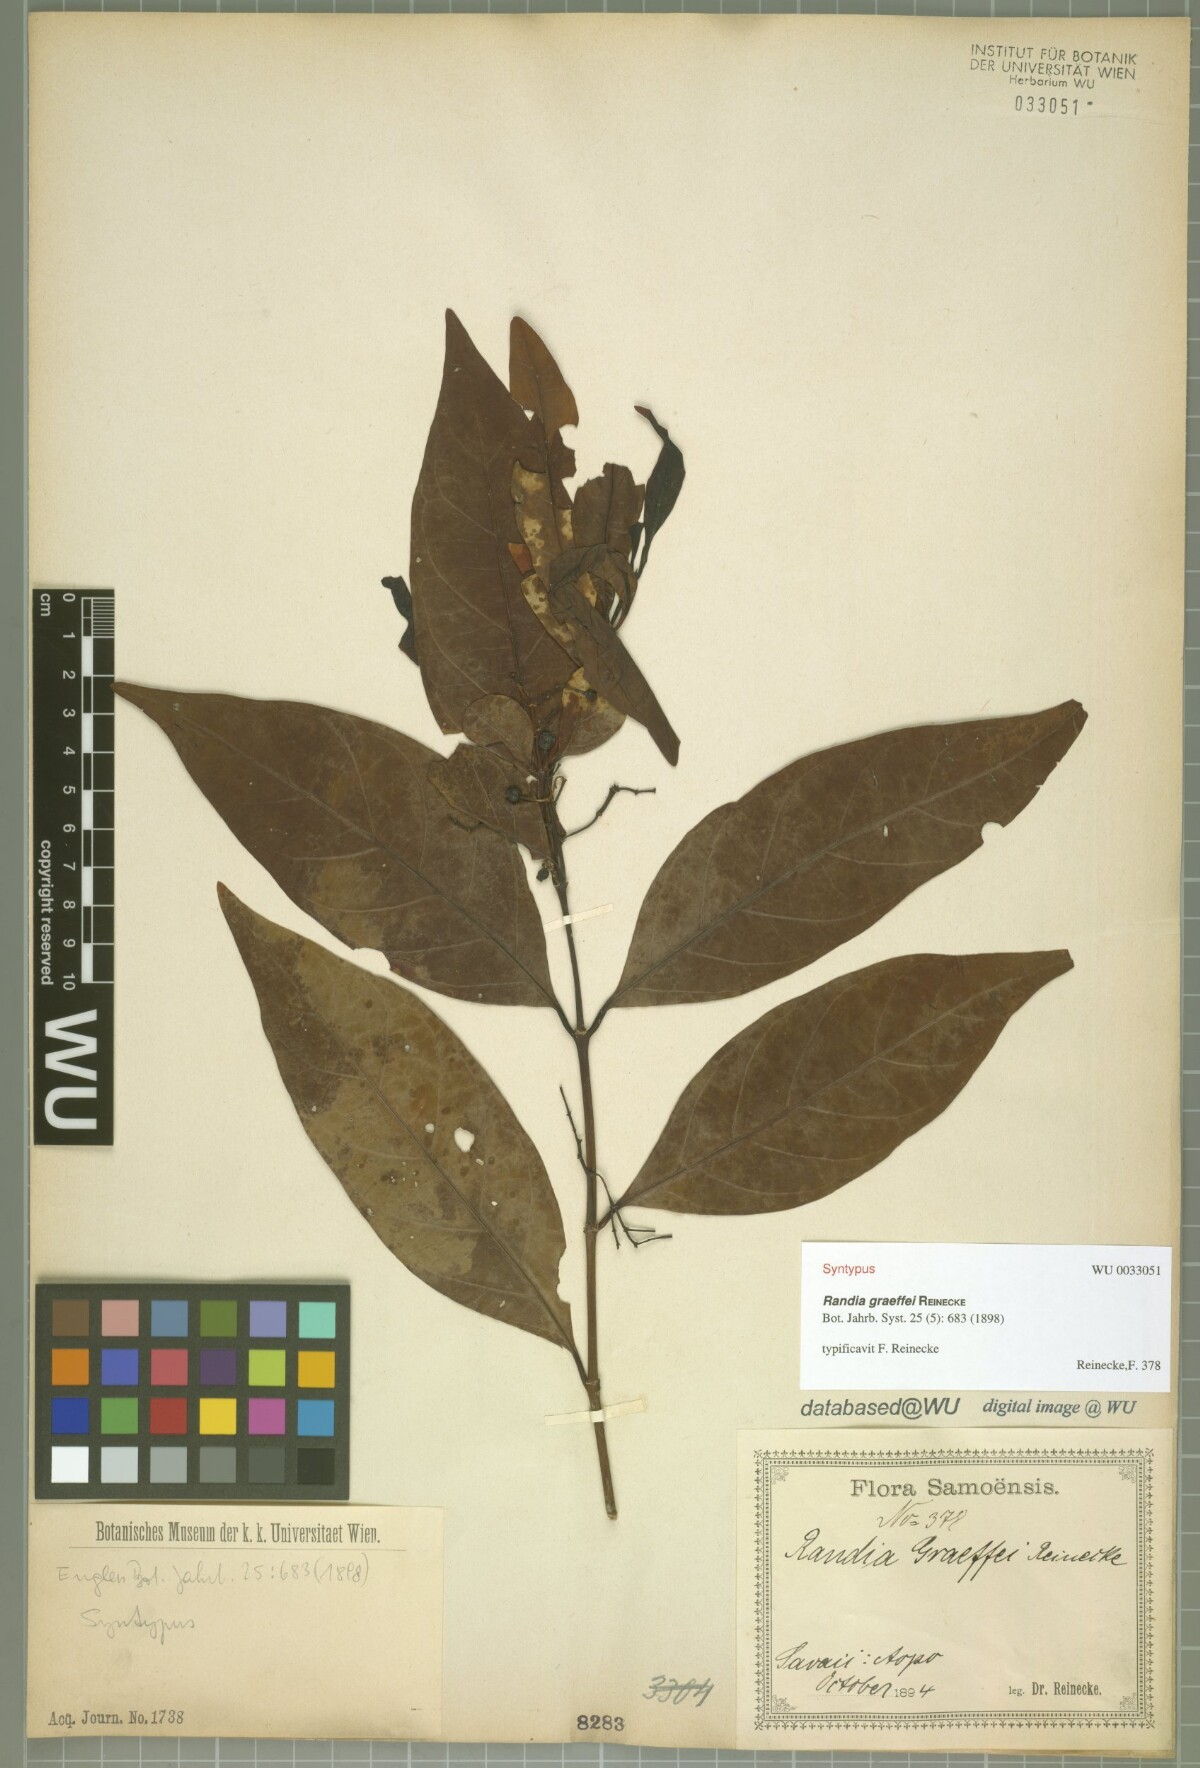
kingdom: Plantae
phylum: Tracheophyta
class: Magnoliopsida
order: Gentianales
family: Rubiaceae
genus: Aidia
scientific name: Aidia racemosa
